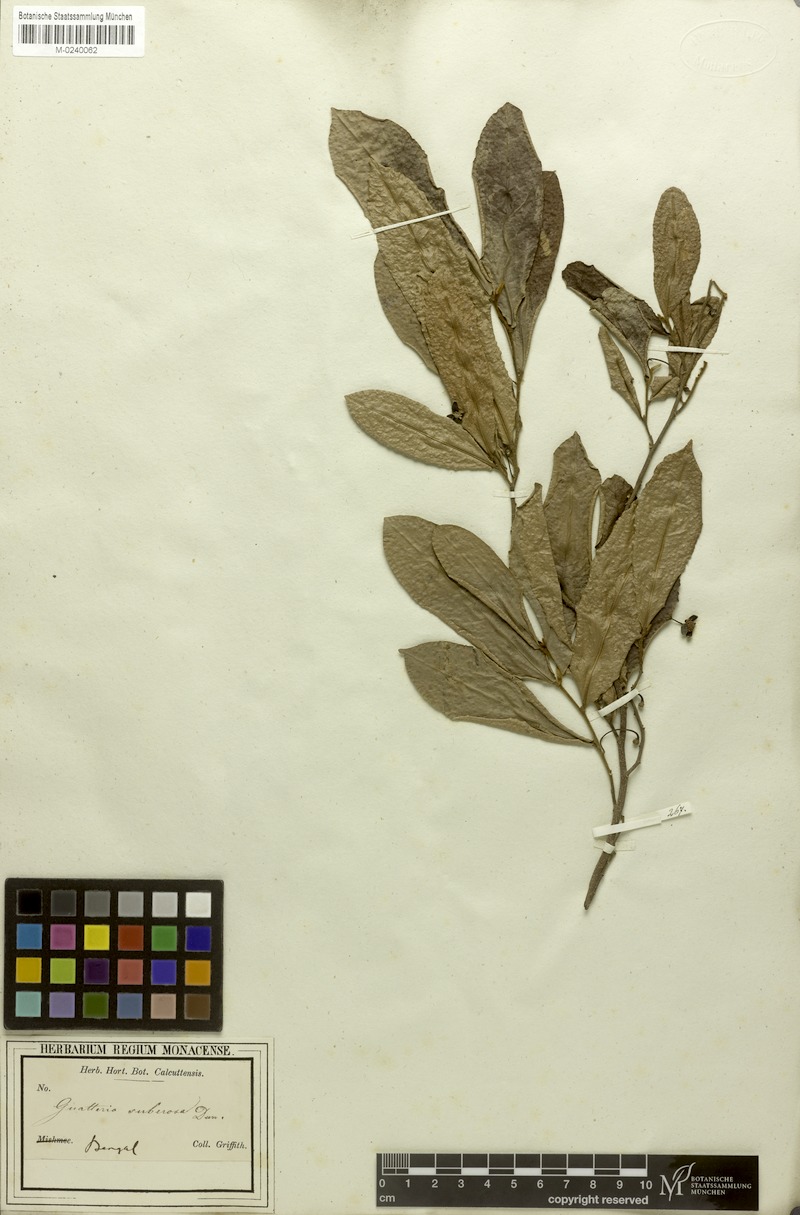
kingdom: Plantae
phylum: Tracheophyta
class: Magnoliopsida
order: Magnoliales
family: Annonaceae
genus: Polyalthia
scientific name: Polyalthia suberosa
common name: Polyalthia plant
